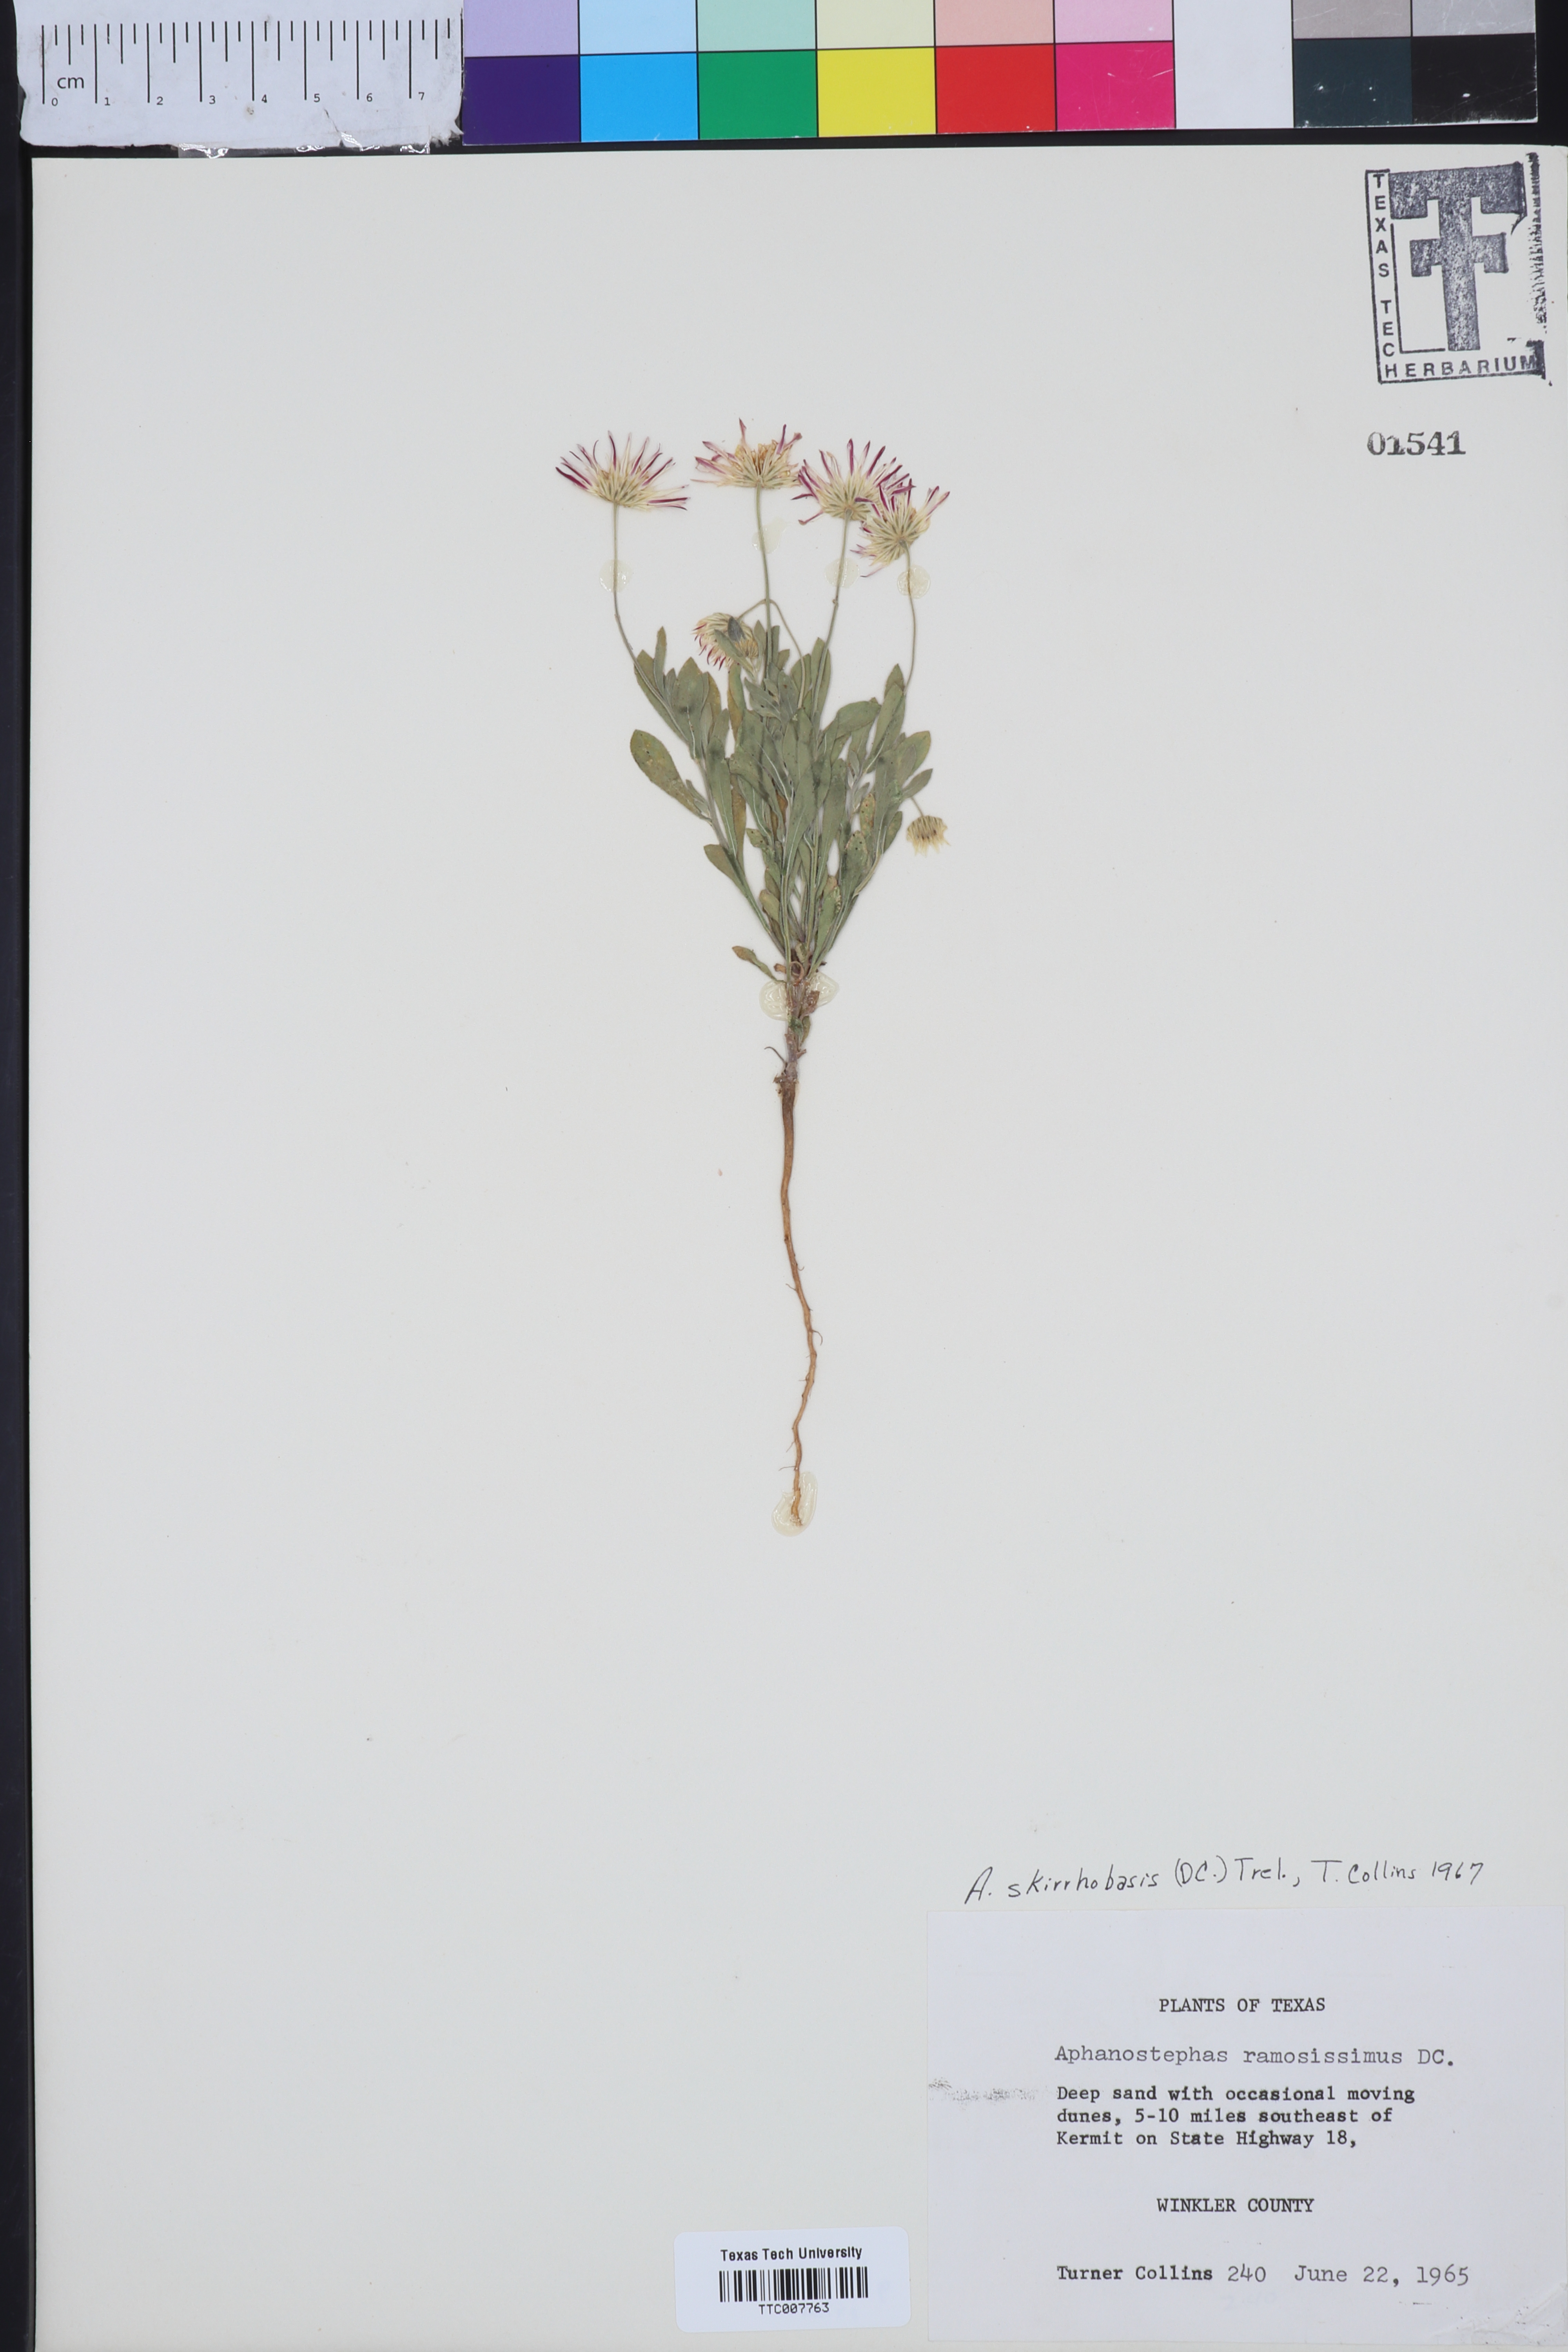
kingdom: Plantae
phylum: Tracheophyta
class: Magnoliopsida
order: Asterales
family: Asteraceae
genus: Aphanostephus
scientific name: Aphanostephus skirrhobasis
